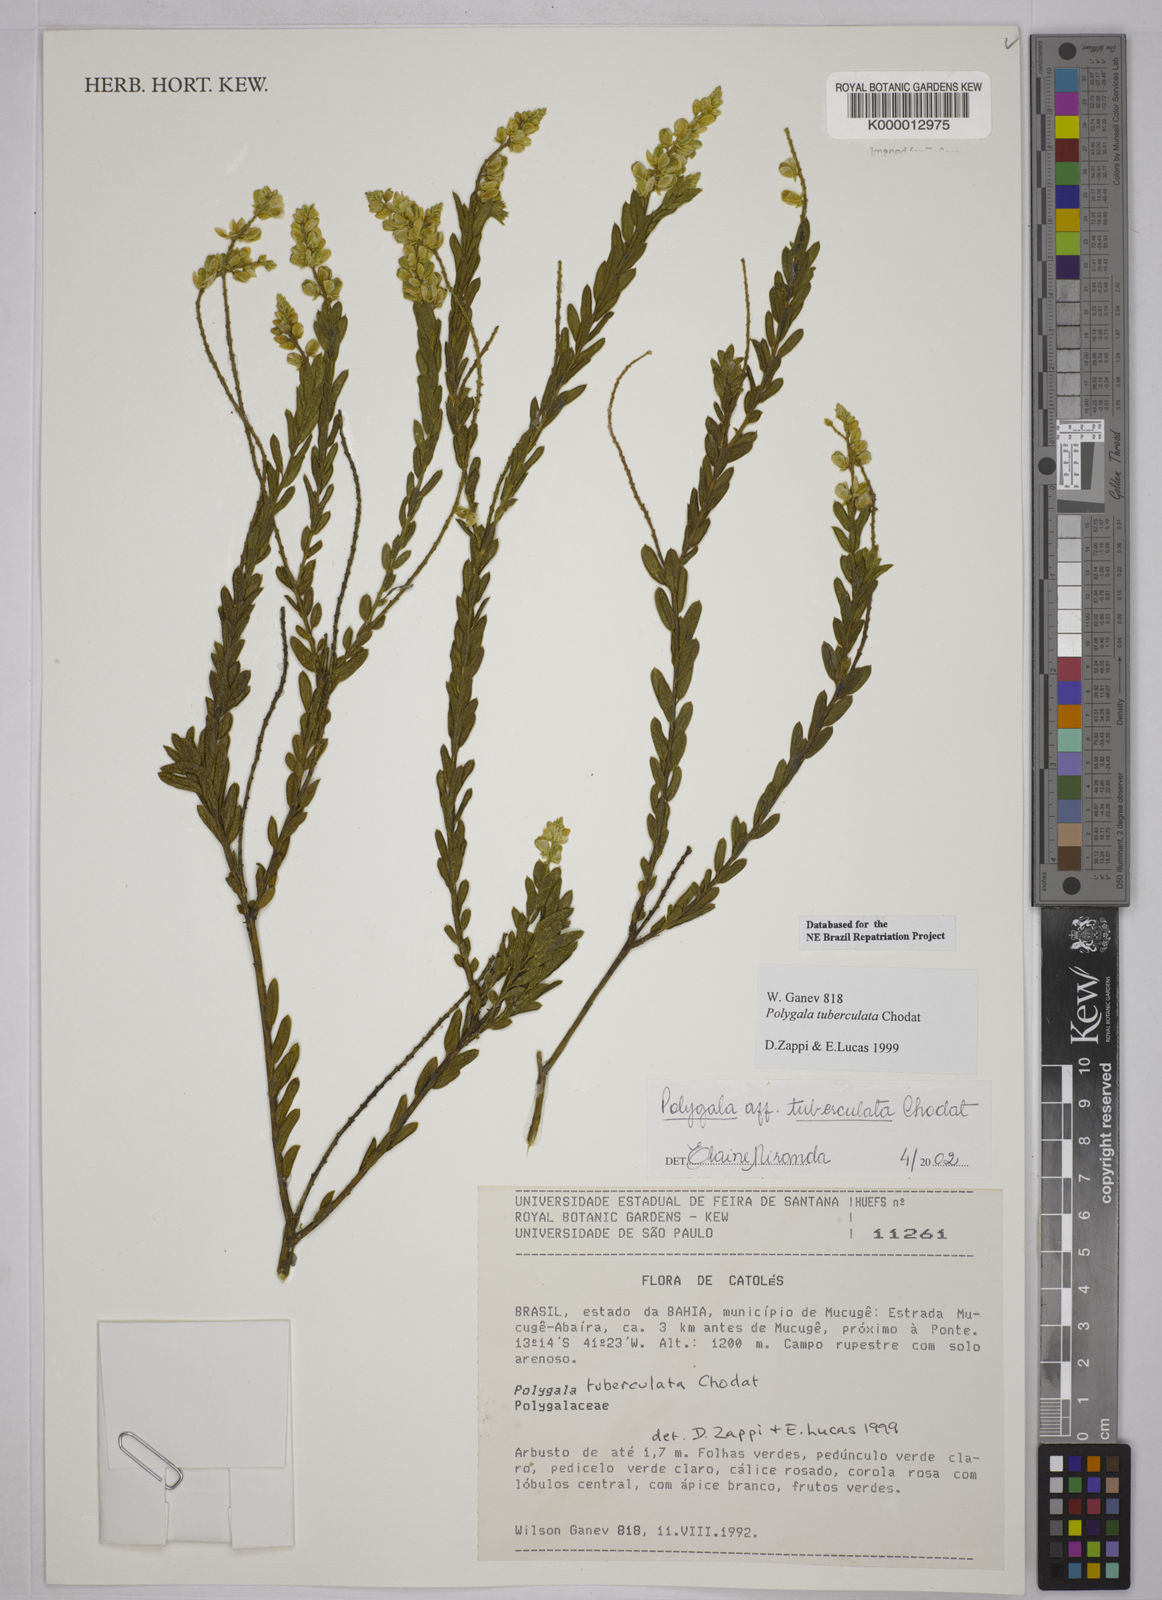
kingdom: Plantae
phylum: Tracheophyta
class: Magnoliopsida
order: Fabales
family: Polygalaceae
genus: Polygala
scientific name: Polygala tuberculata
